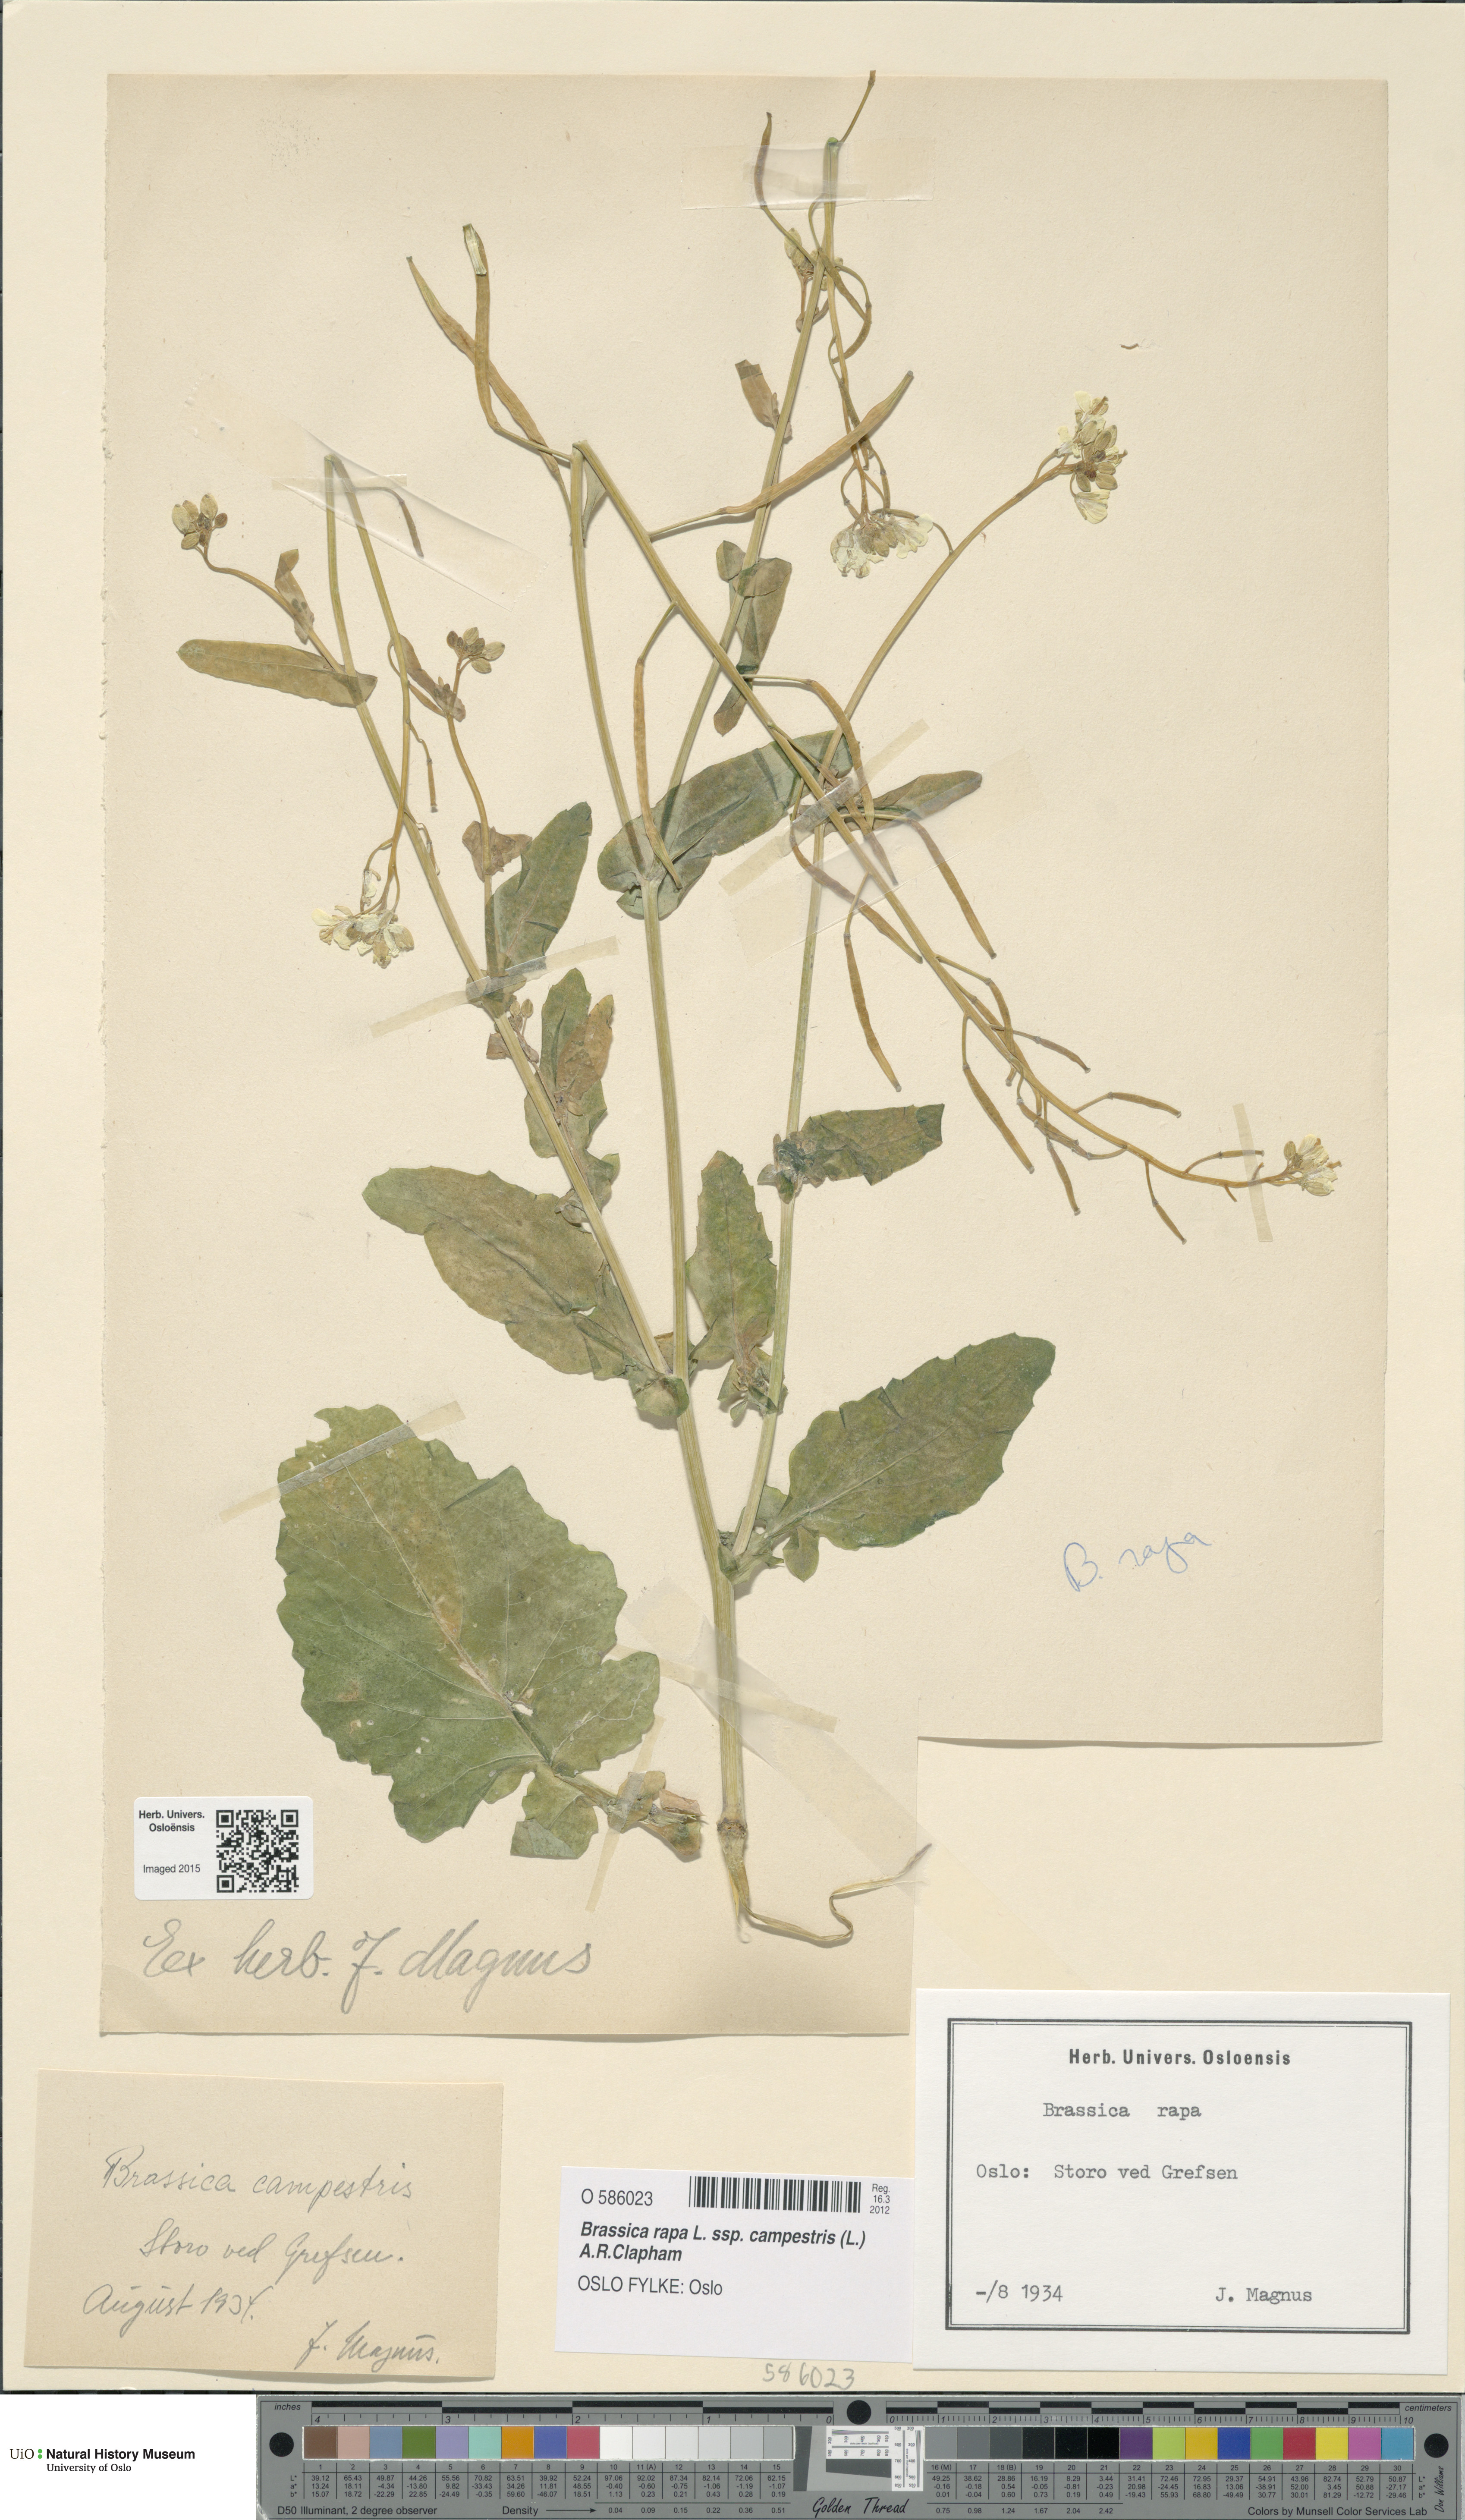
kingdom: Plantae
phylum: Tracheophyta
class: Magnoliopsida
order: Brassicales
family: Brassicaceae
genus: Brassica
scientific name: Brassica rapa
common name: Field mustard
